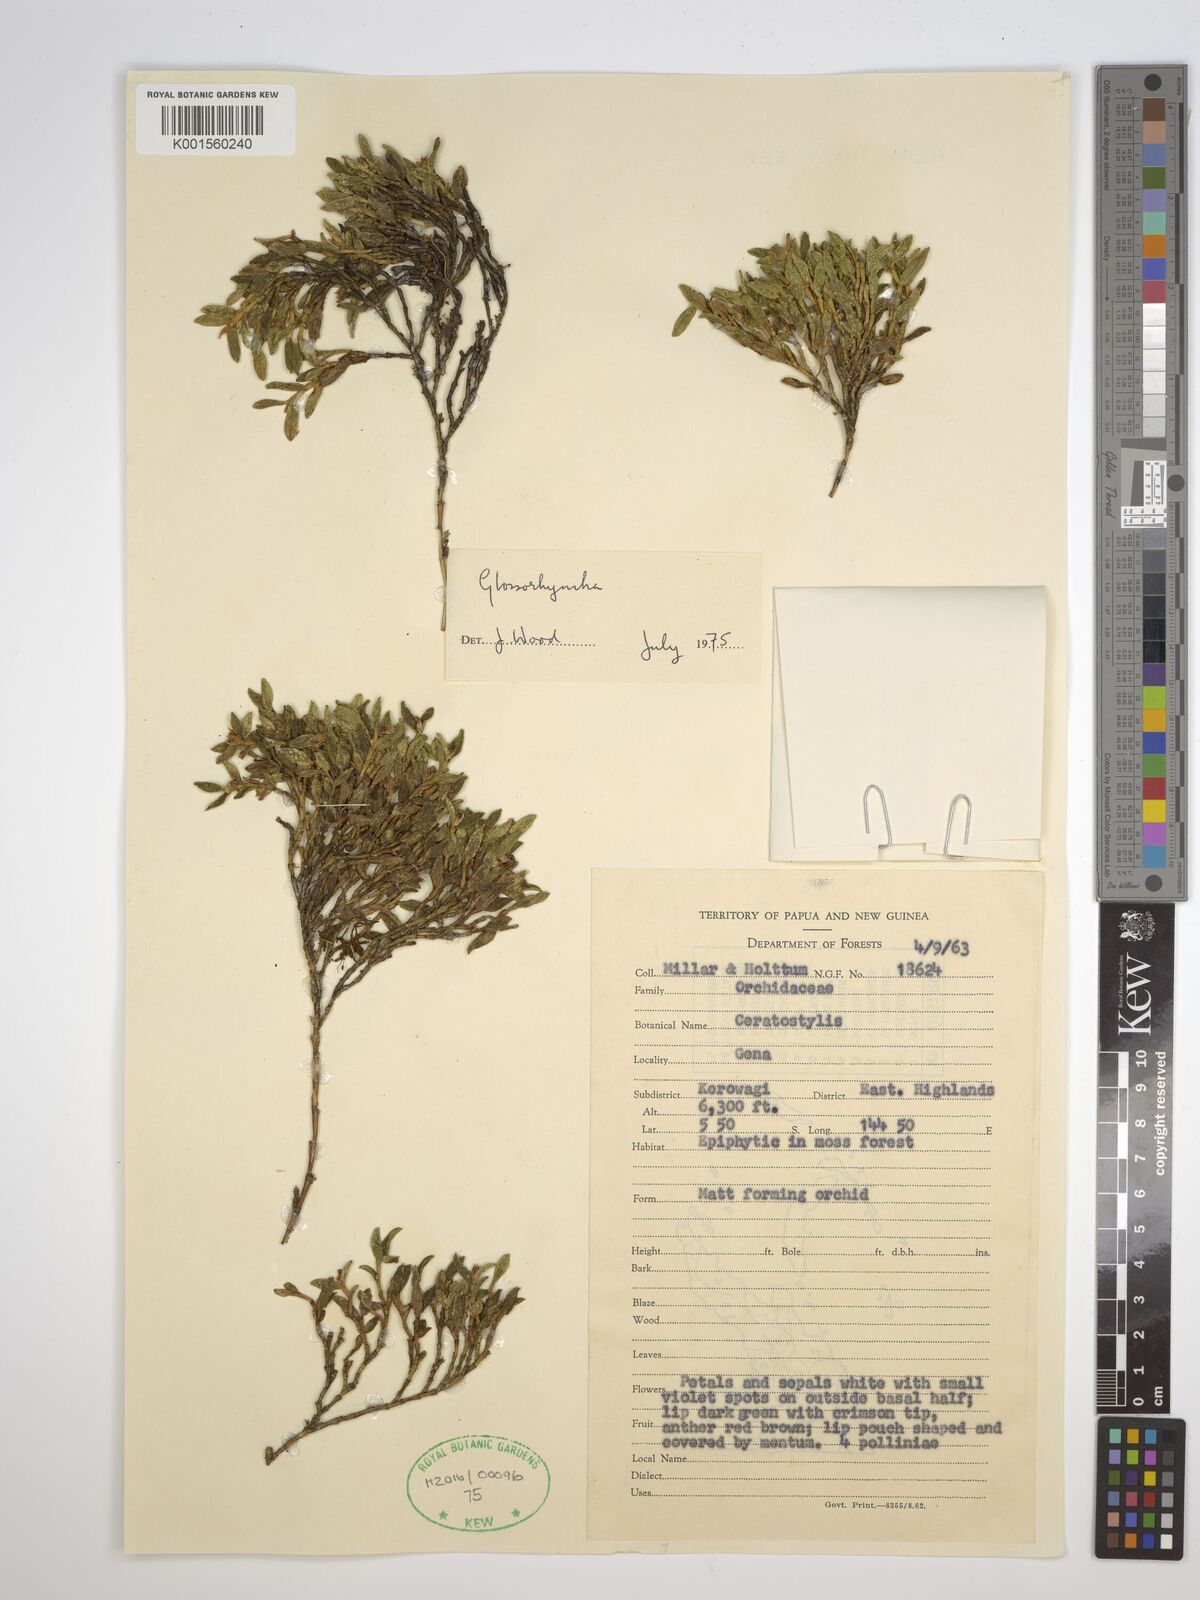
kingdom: Plantae
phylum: Tracheophyta
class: Liliopsida
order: Asparagales
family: Orchidaceae
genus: Glomera
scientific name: Glomera
